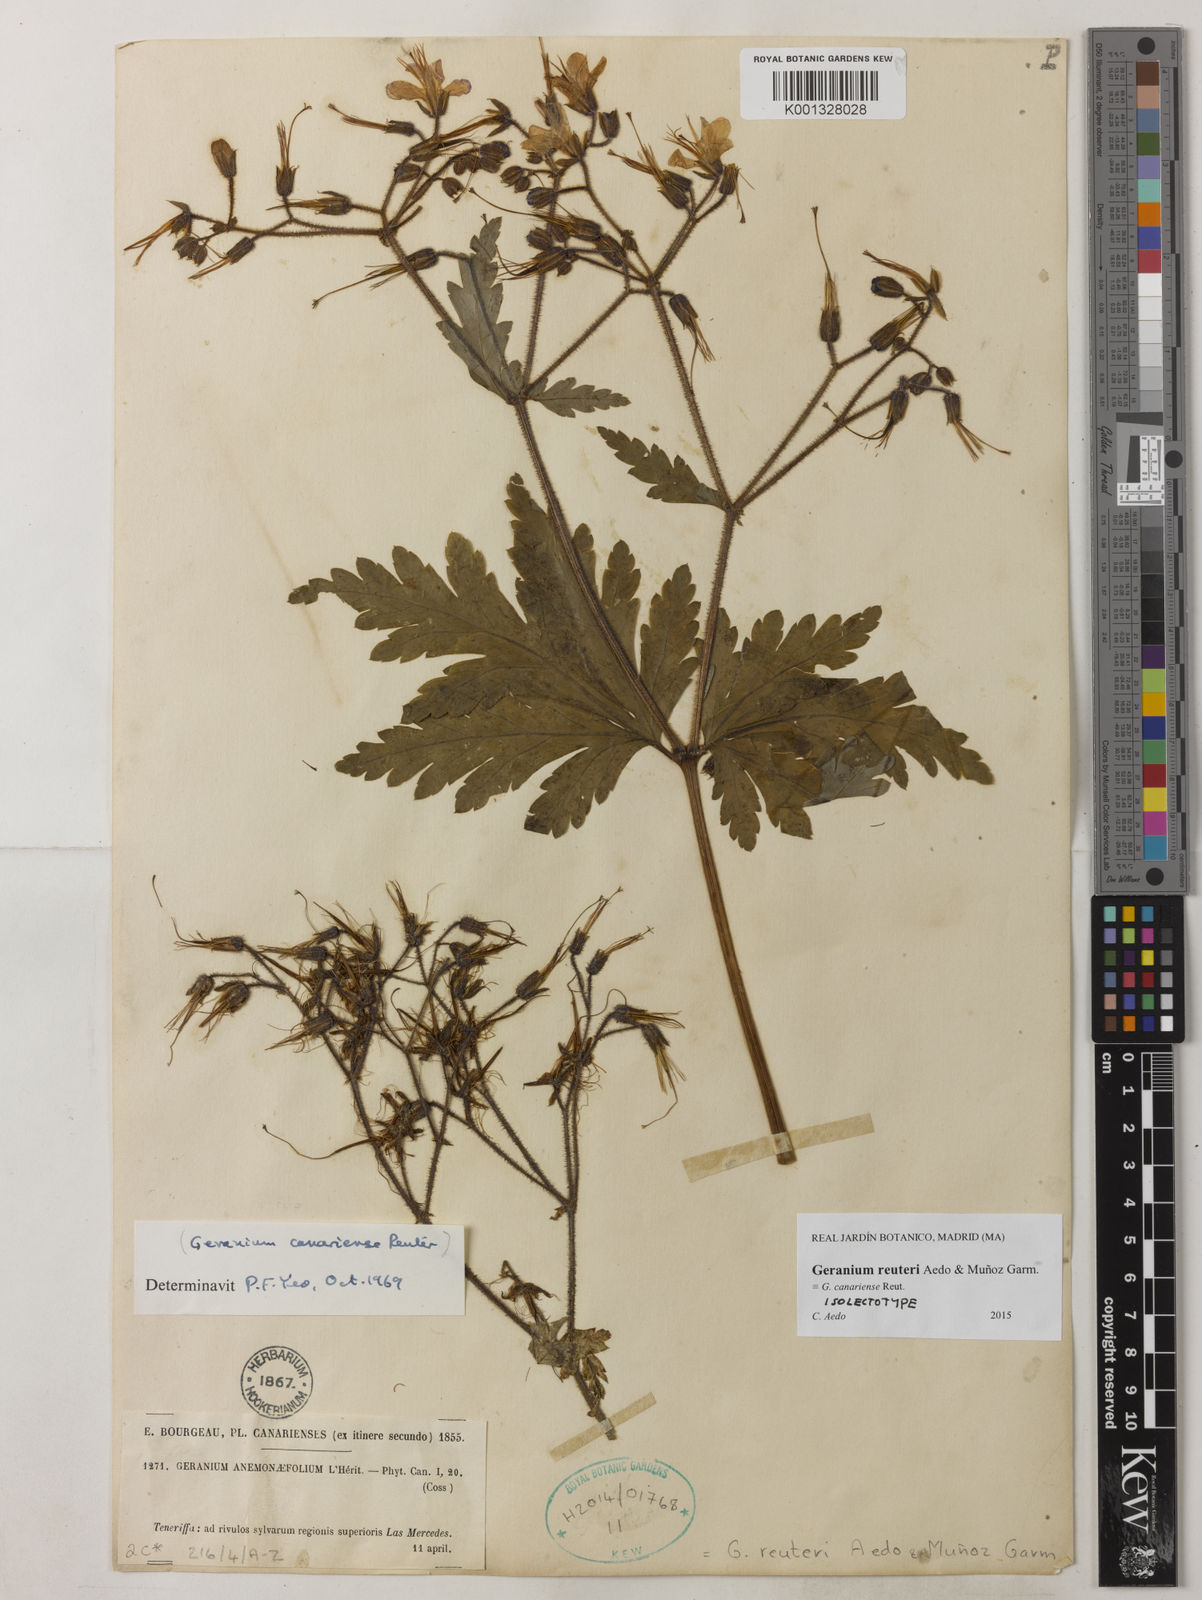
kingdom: Plantae
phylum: Tracheophyta
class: Magnoliopsida
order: Geraniales
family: Geraniaceae
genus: Geranium
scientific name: Geranium
